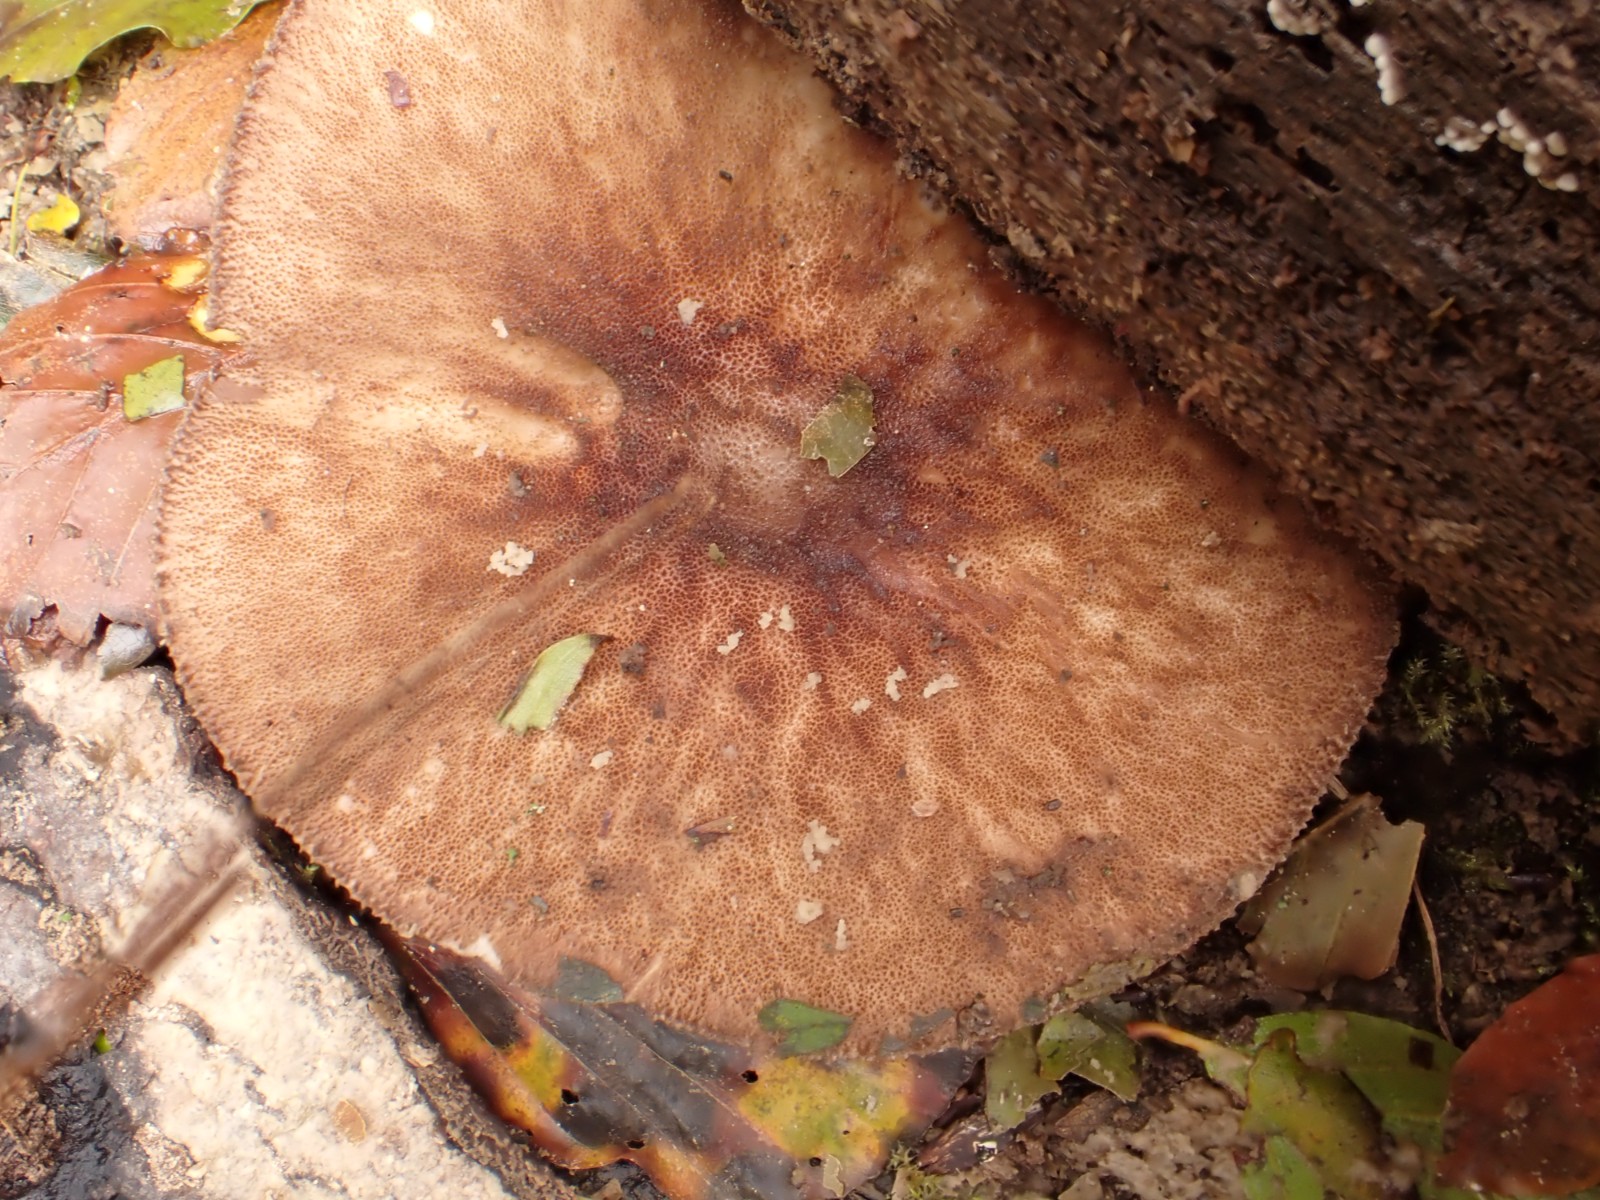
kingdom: Fungi
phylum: Basidiomycota
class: Agaricomycetes
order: Agaricales
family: Pluteaceae
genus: Pluteus
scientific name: Pluteus umbrosus
